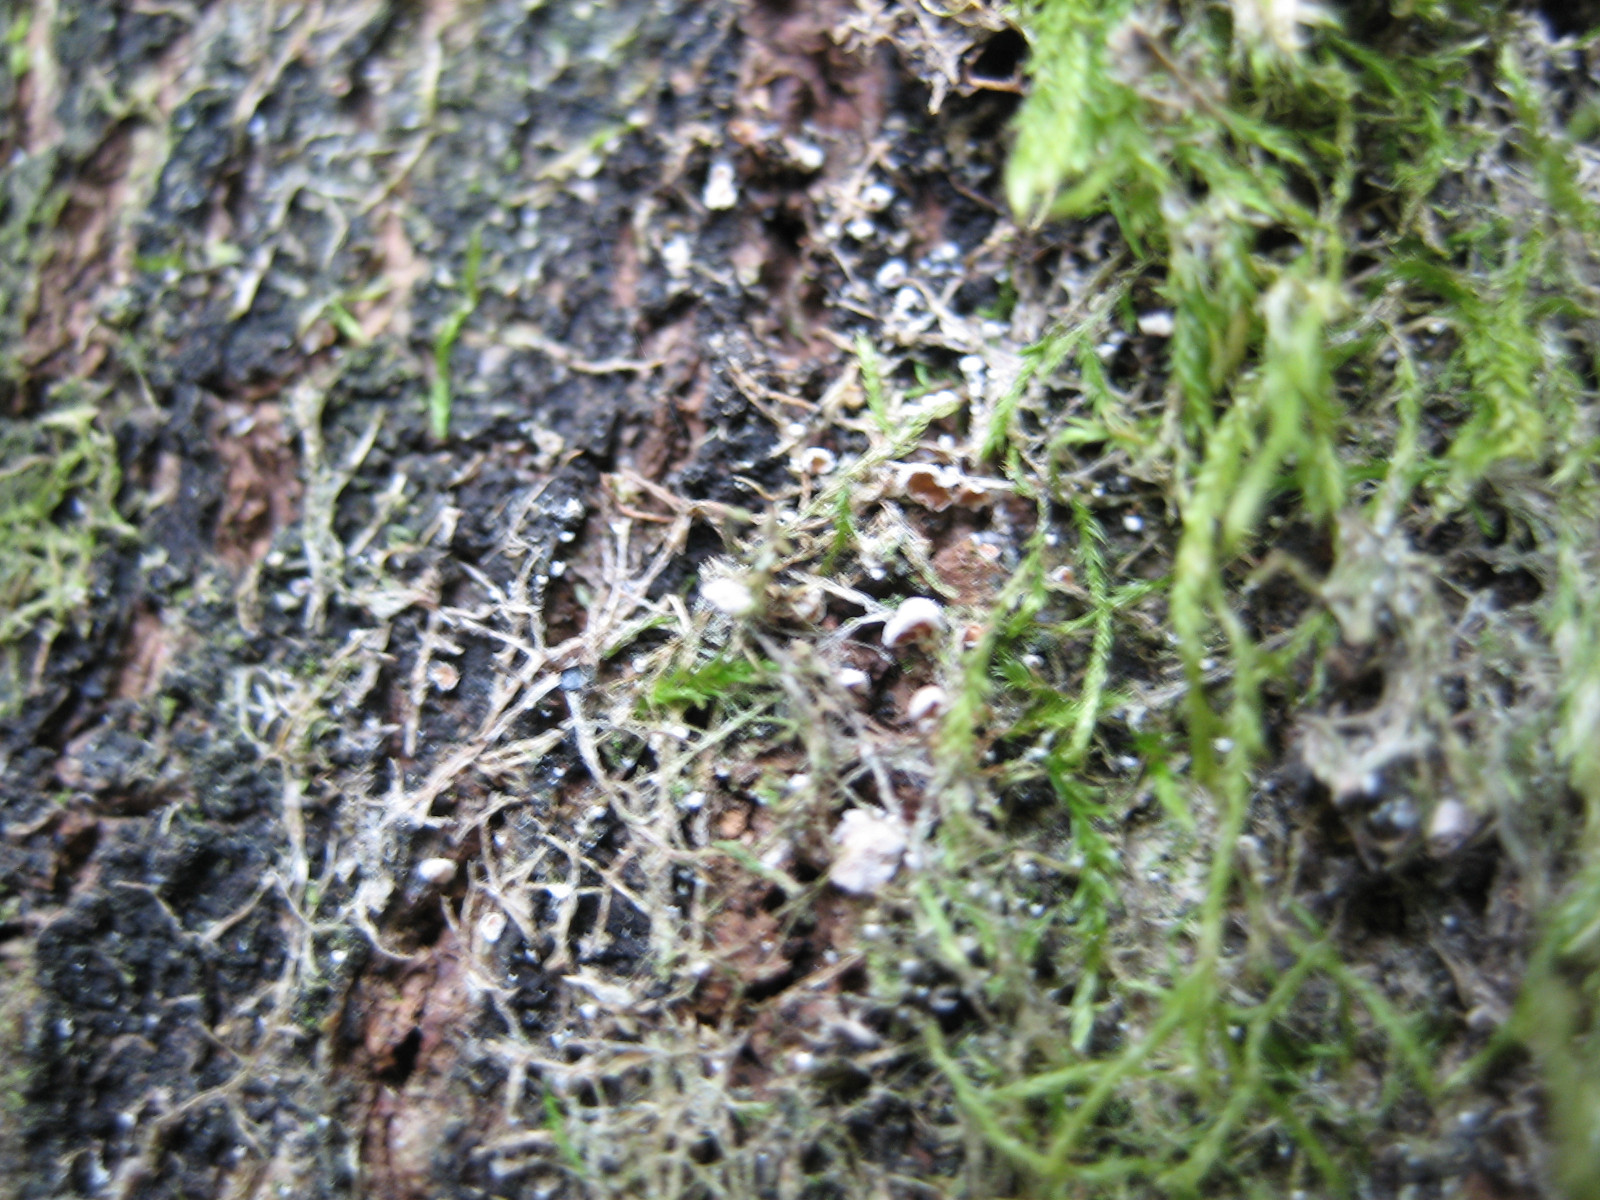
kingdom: Fungi
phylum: Basidiomycota
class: Agaricomycetes
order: Agaricales
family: Chromocyphellaceae
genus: Chromocyphella
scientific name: Chromocyphella muscicola
